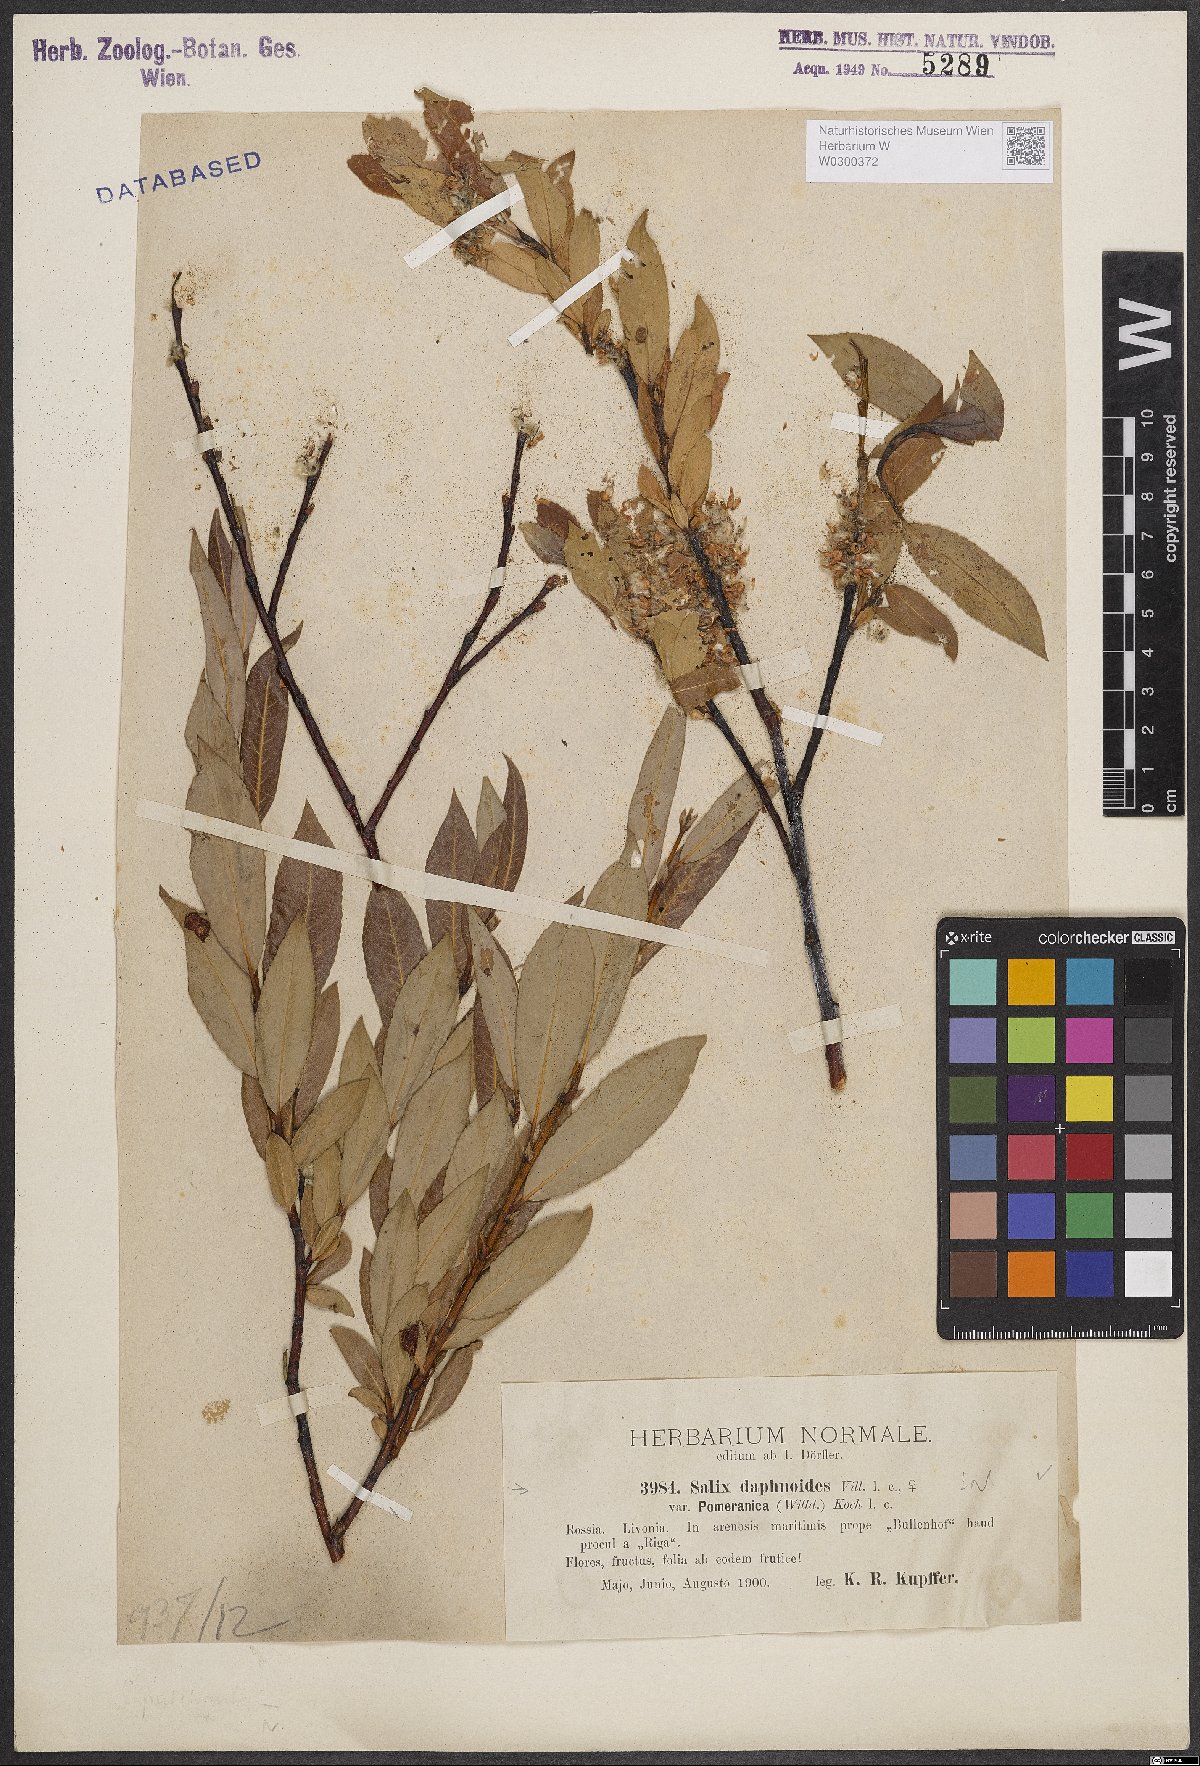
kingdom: Plantae
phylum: Tracheophyta
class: Magnoliopsida
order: Malpighiales
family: Salicaceae
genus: Salix
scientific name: Salix daphnoides
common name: European violet-willow
